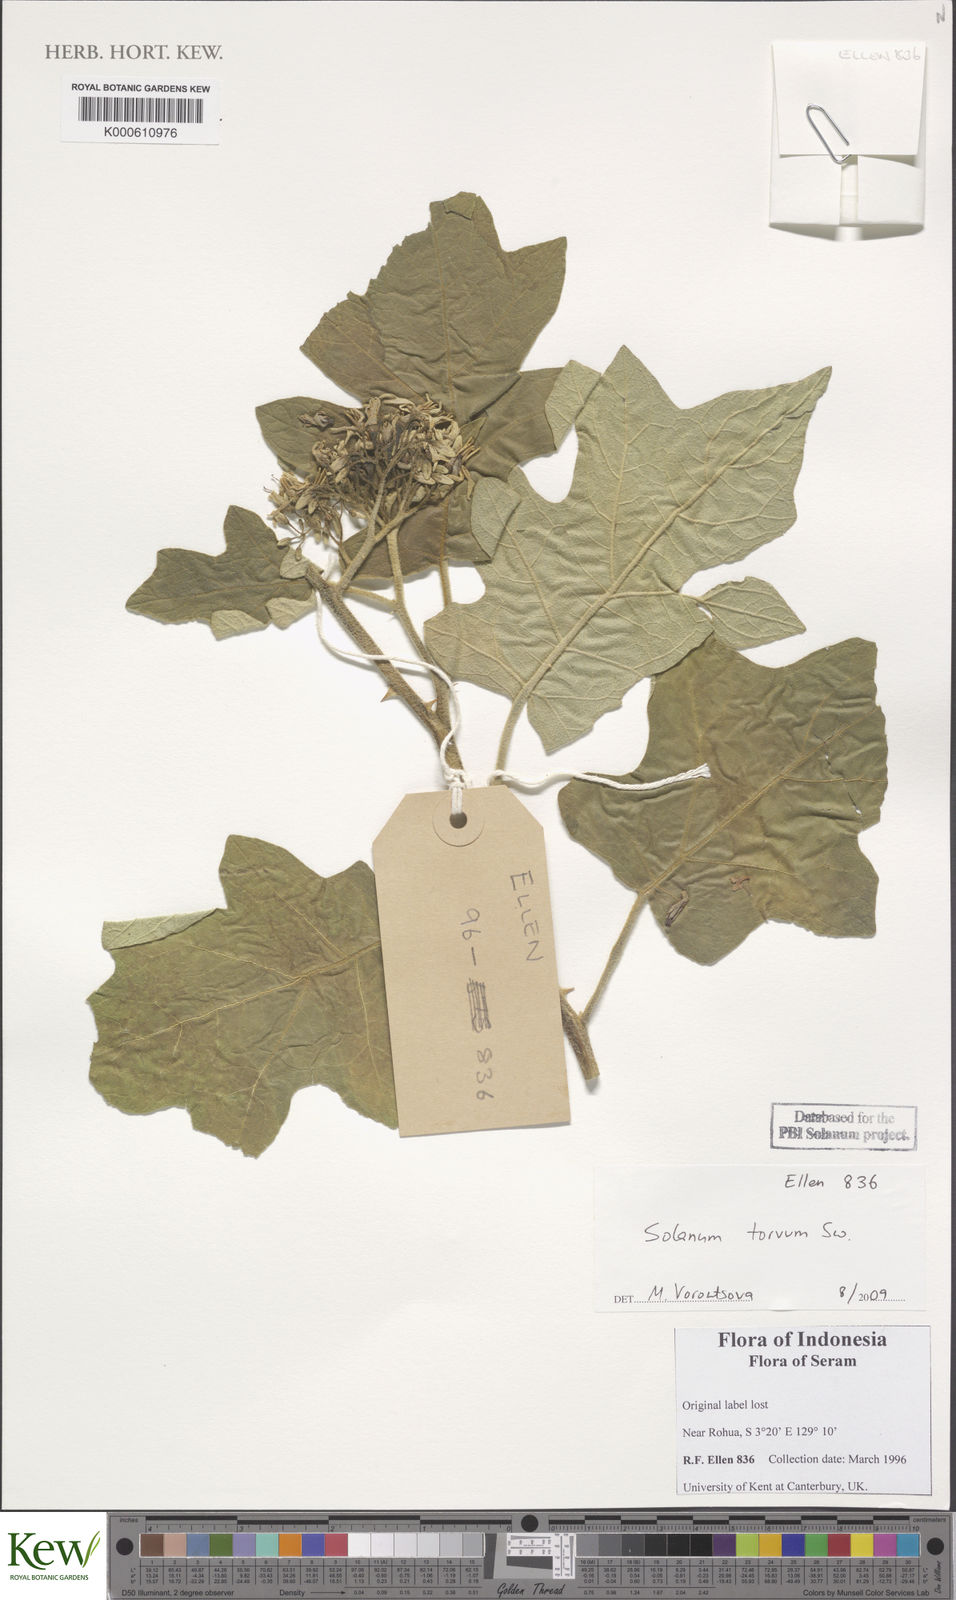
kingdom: Plantae
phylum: Tracheophyta
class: Magnoliopsida
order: Solanales
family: Solanaceae
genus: Solanum
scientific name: Solanum torvum
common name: Turkey berry
